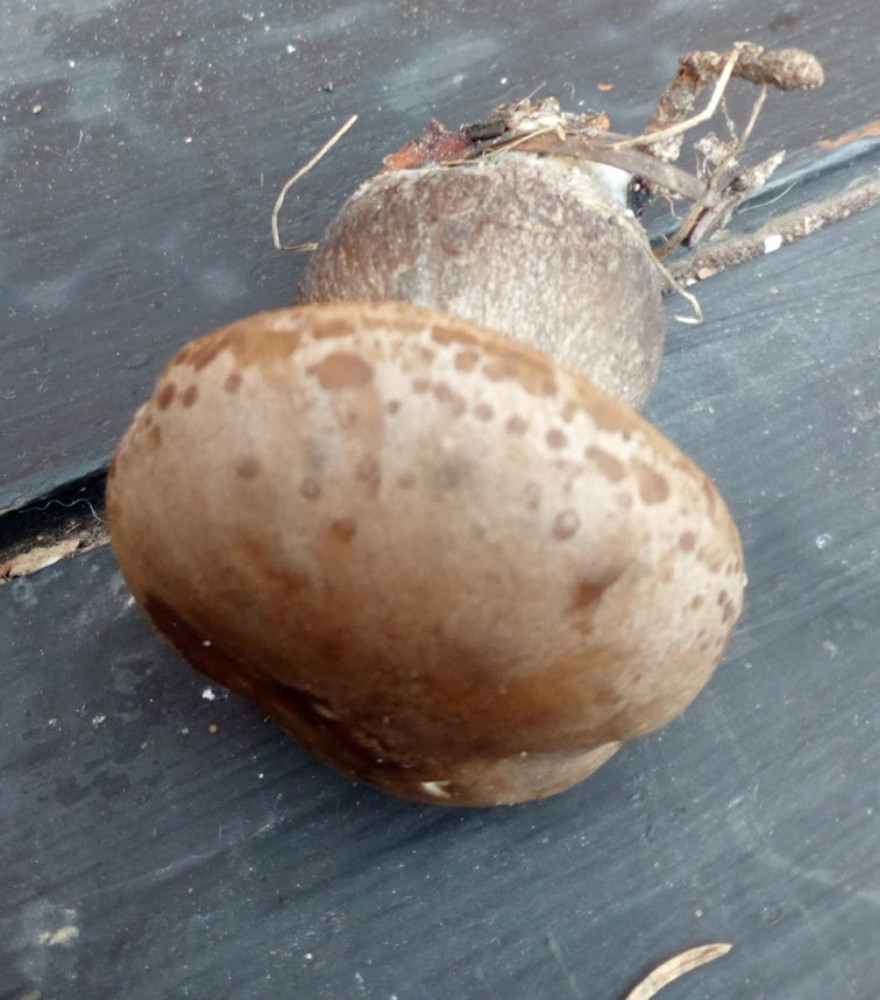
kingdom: Fungi
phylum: Basidiomycota
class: Agaricomycetes
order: Agaricales
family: Hygrophoraceae
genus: Ampulloclitocybe
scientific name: Ampulloclitocybe clavipes
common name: køllefod
